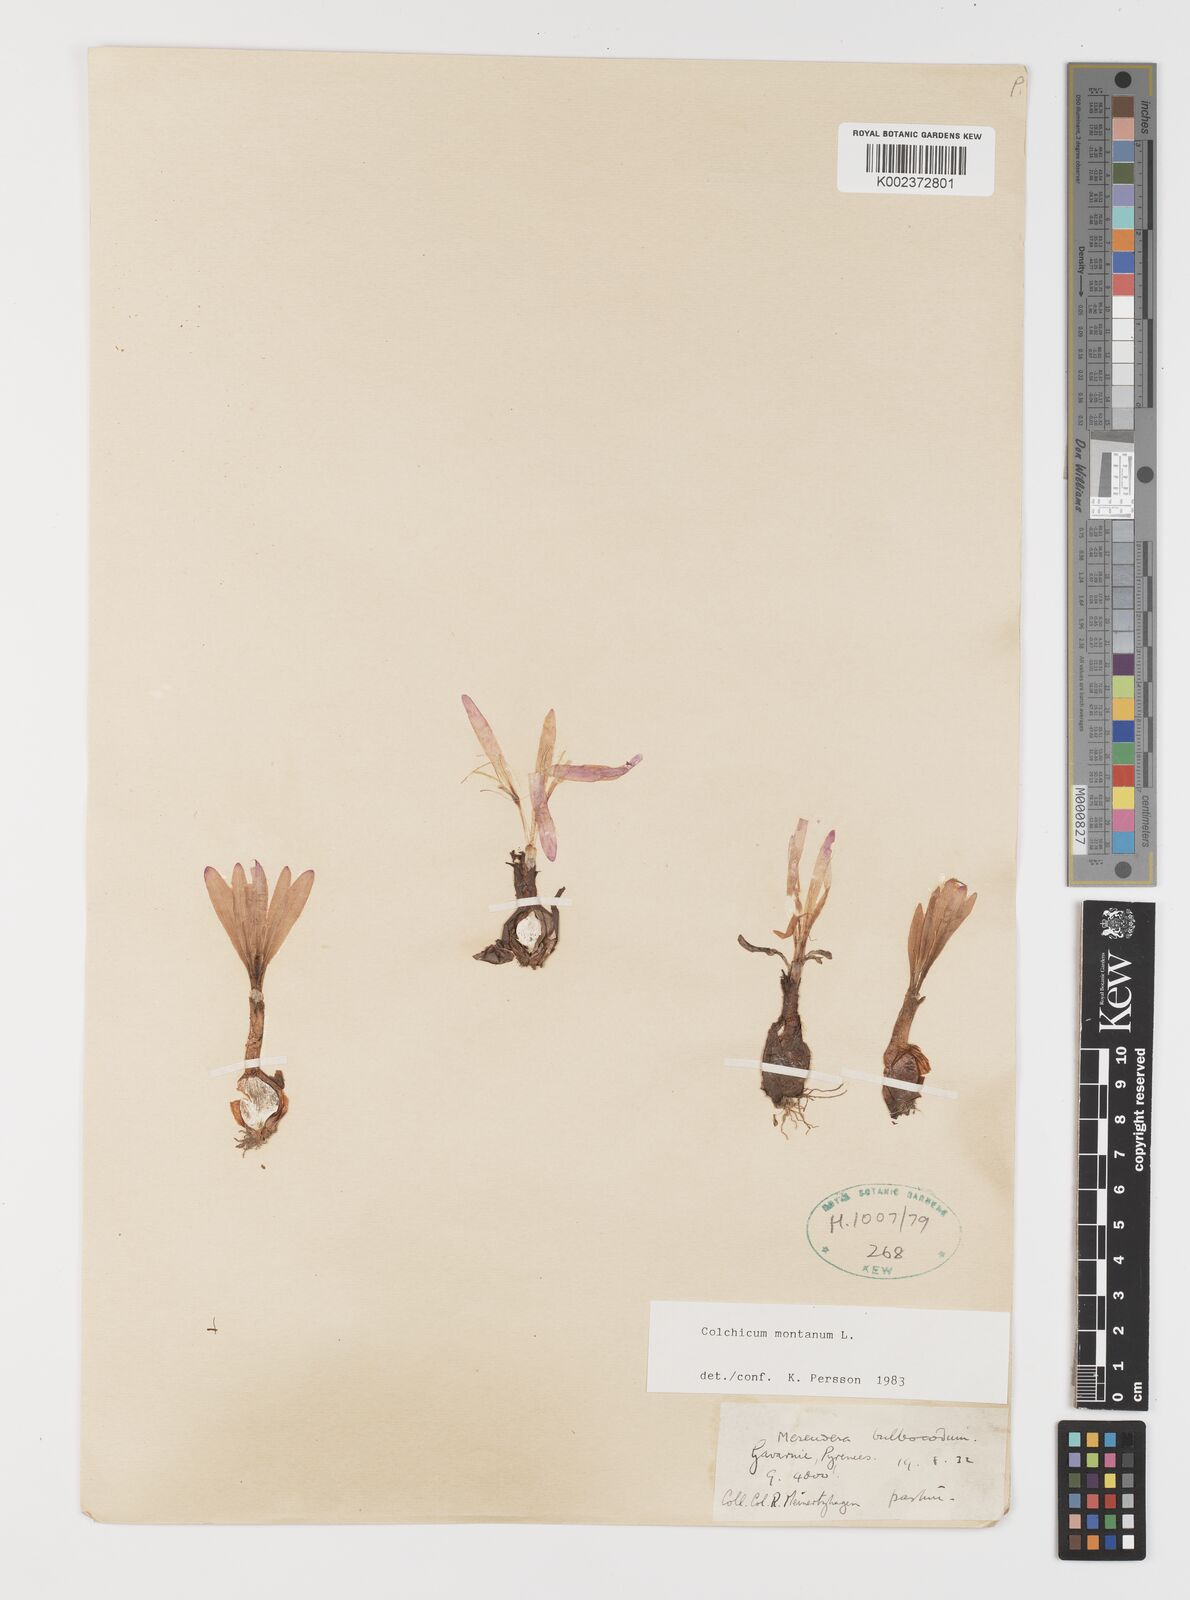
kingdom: Plantae
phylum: Tracheophyta
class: Liliopsida
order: Liliales
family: Colchicaceae
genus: Colchicum
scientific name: Colchicum montanum
